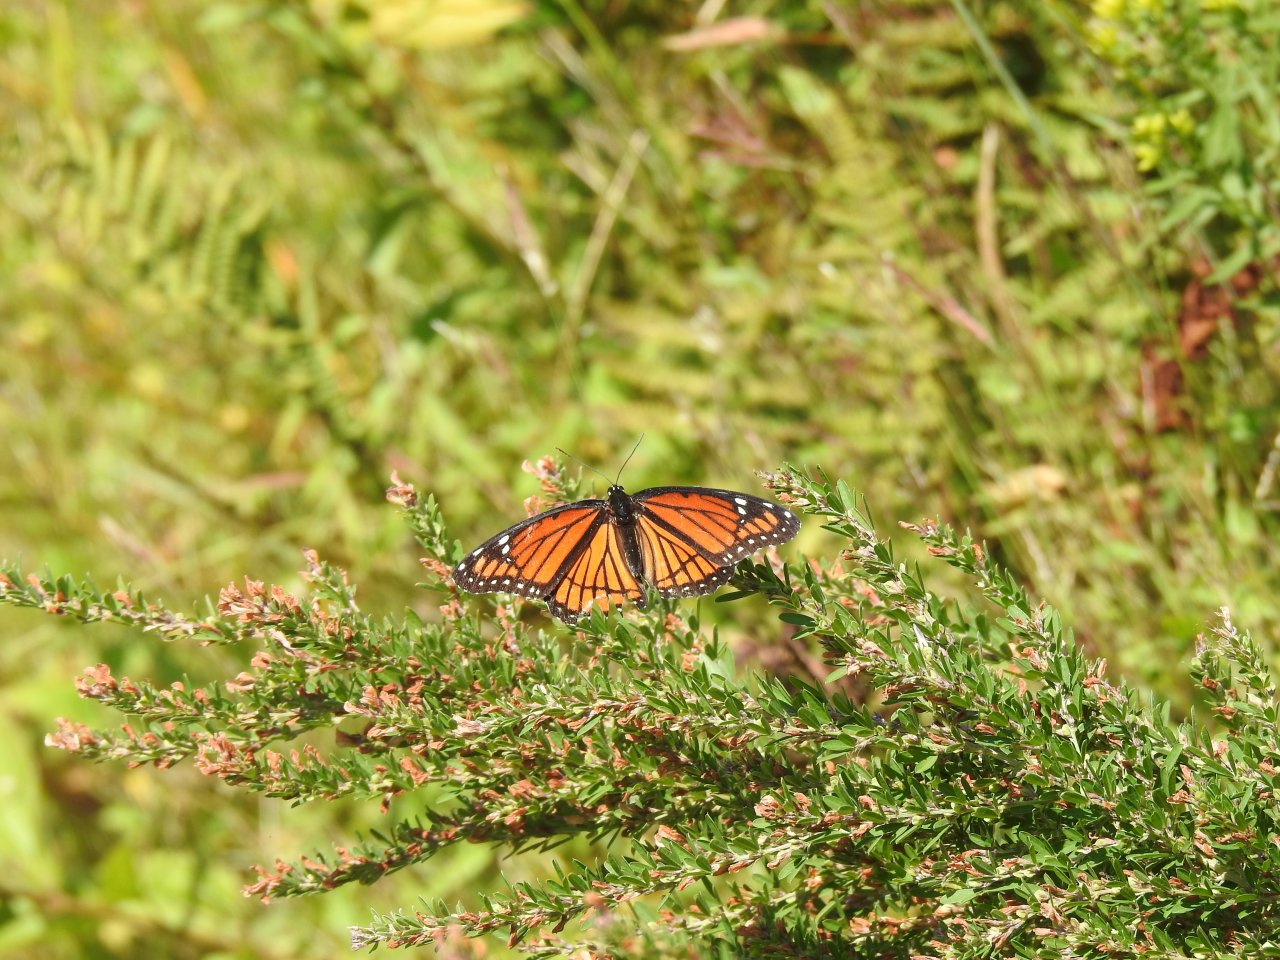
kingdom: Animalia
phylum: Arthropoda
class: Insecta
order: Lepidoptera
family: Nymphalidae
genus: Limenitis
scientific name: Limenitis archippus
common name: Viceroy
